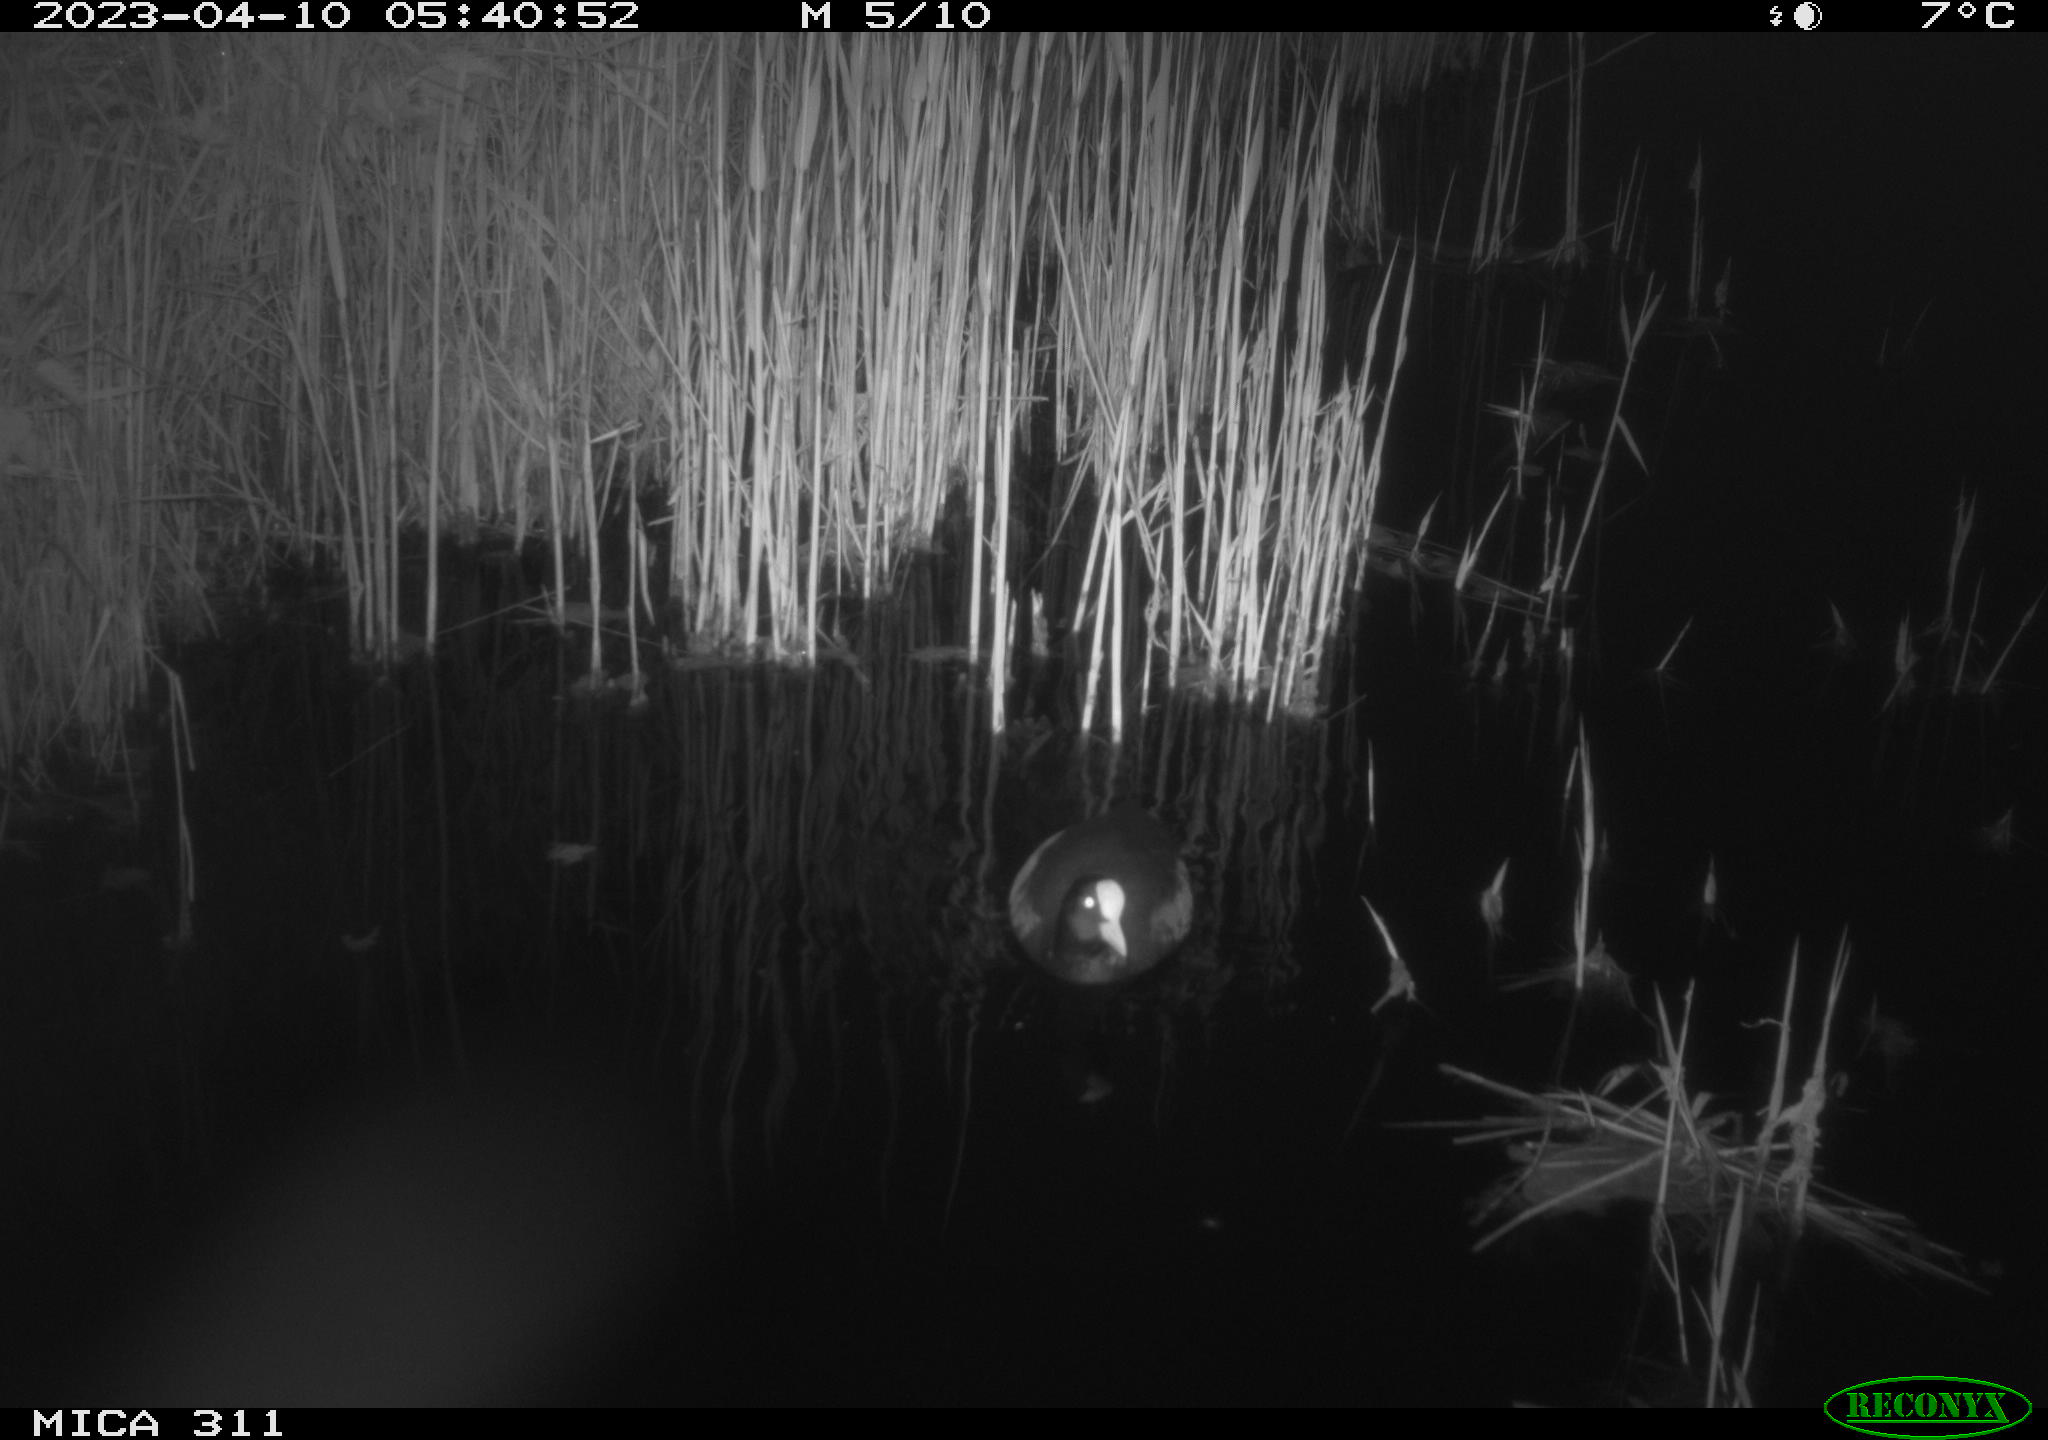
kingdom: Animalia
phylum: Chordata
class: Aves
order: Gruiformes
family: Rallidae
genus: Fulica
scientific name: Fulica atra
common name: Eurasian coot
